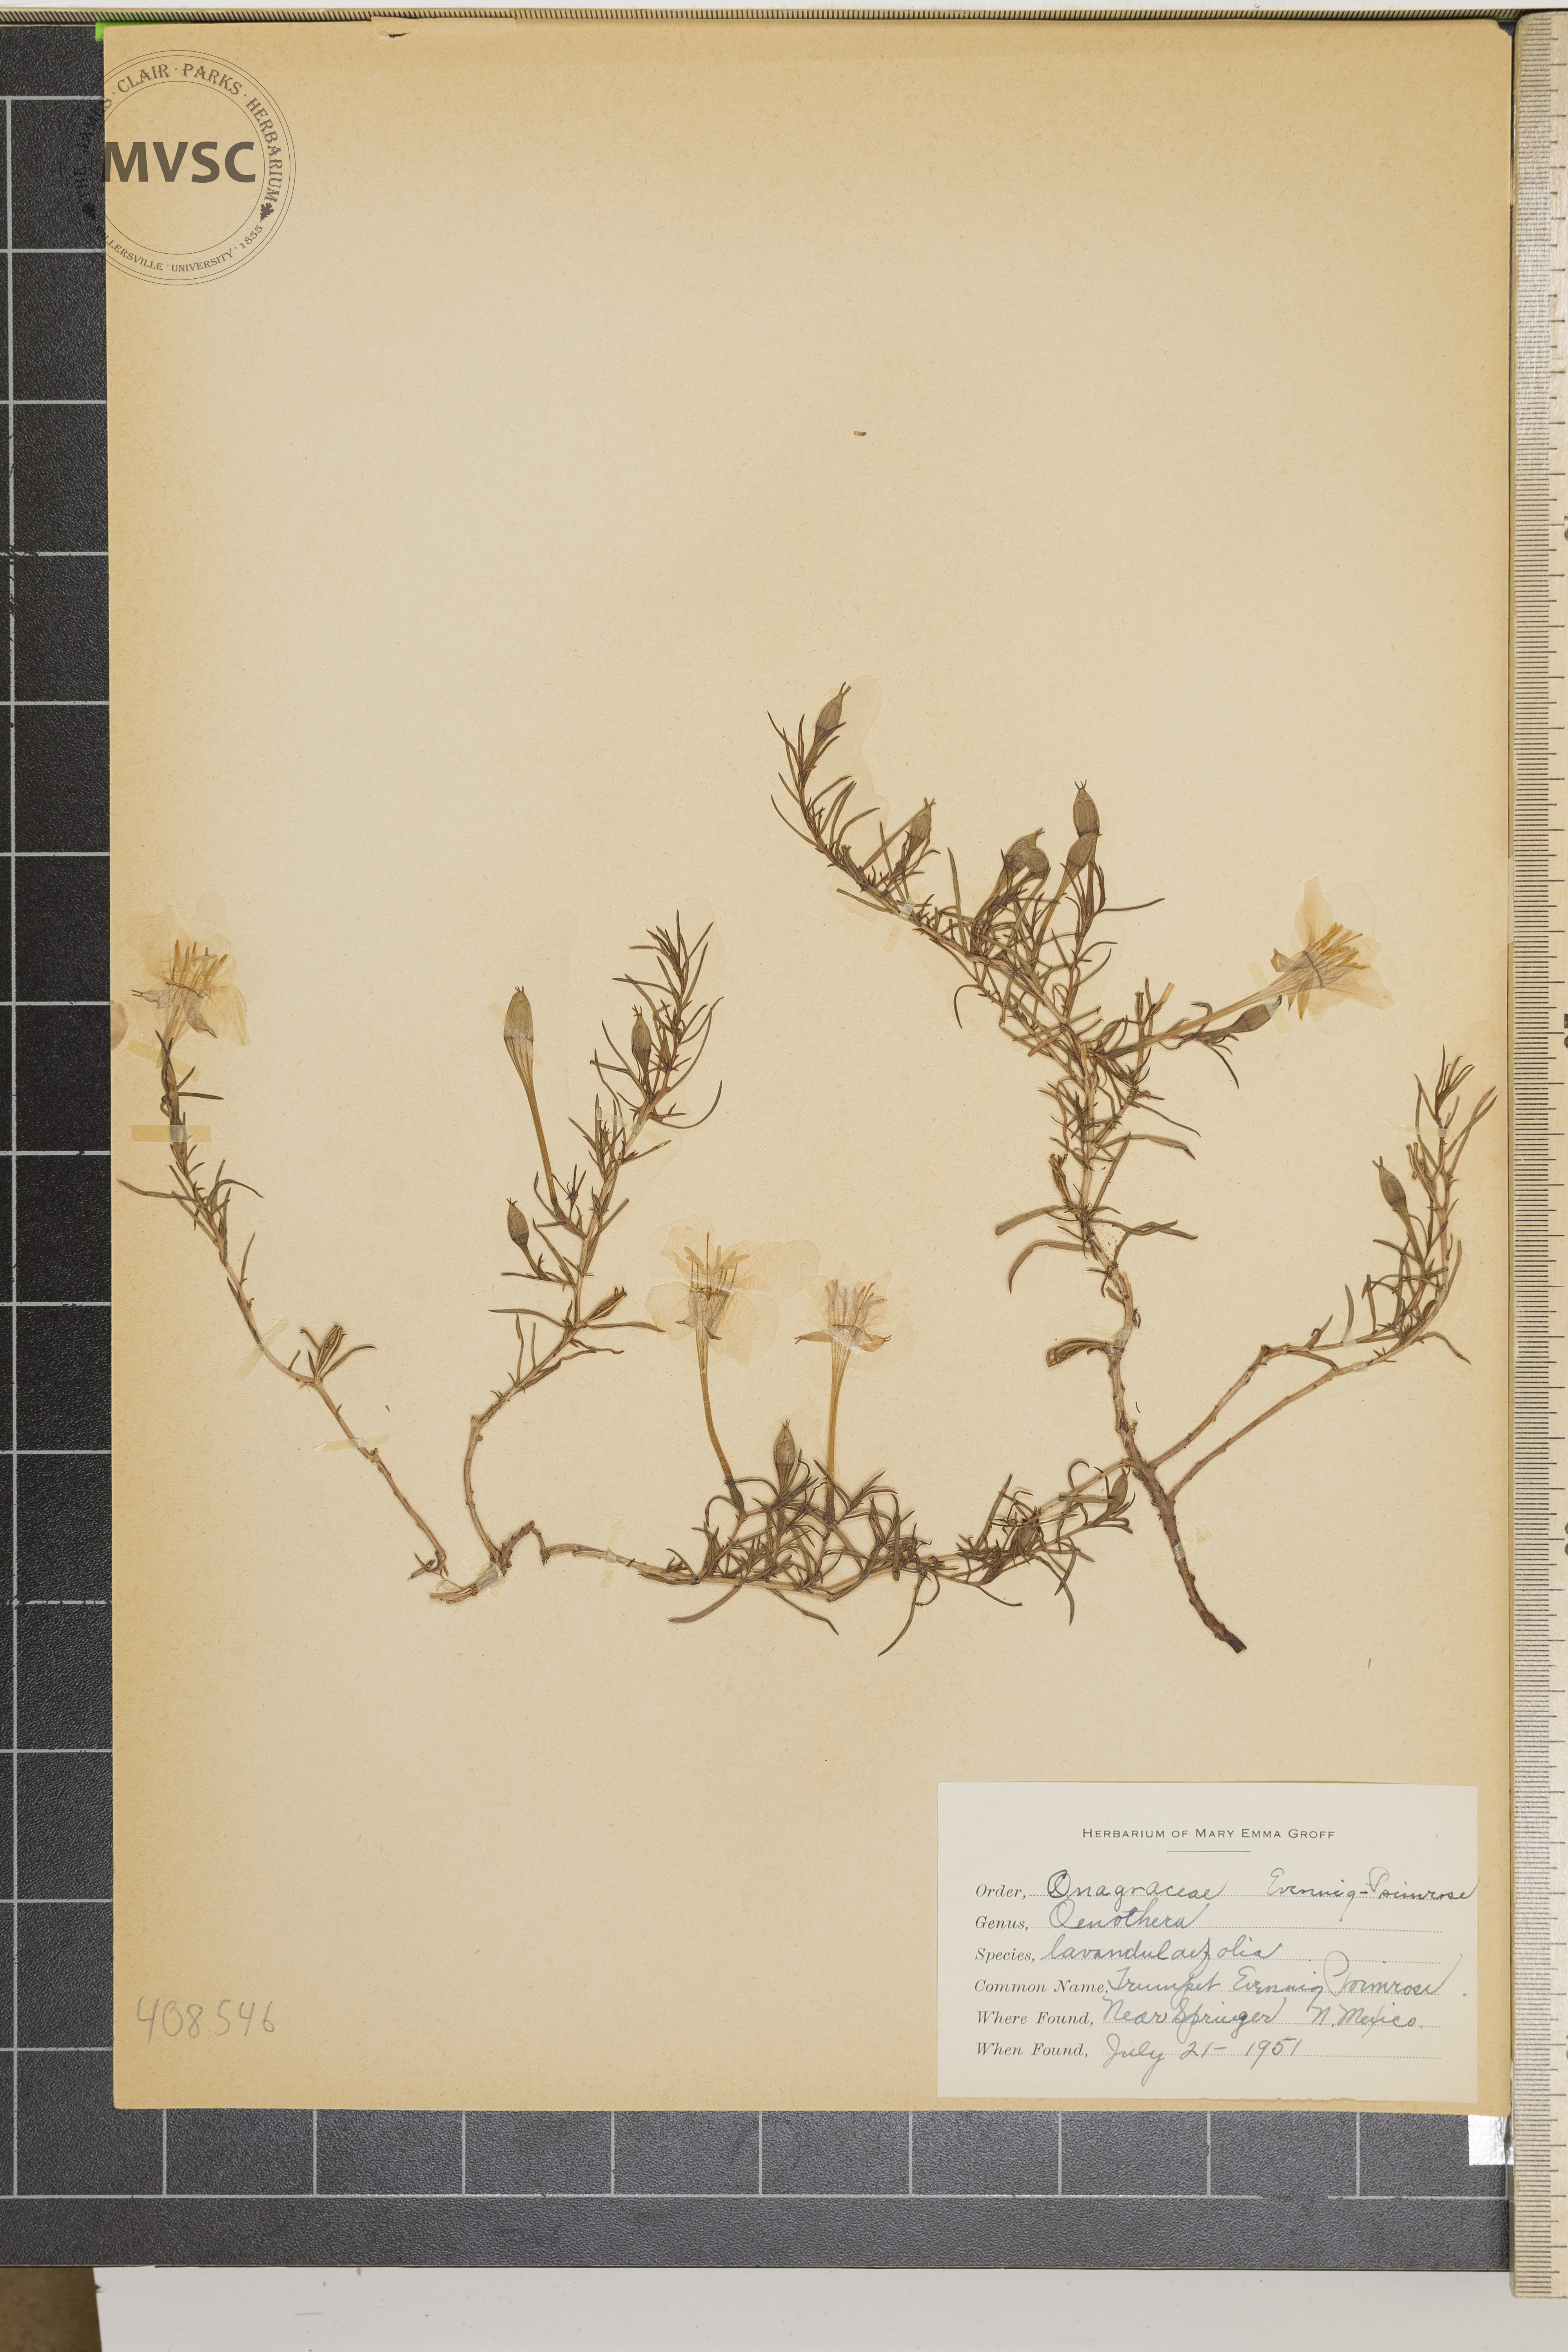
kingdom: Plantae
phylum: Tracheophyta
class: Magnoliopsida
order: Myrtales
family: Onagraceae
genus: Oenothera
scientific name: Oenothera lavandulifolia
